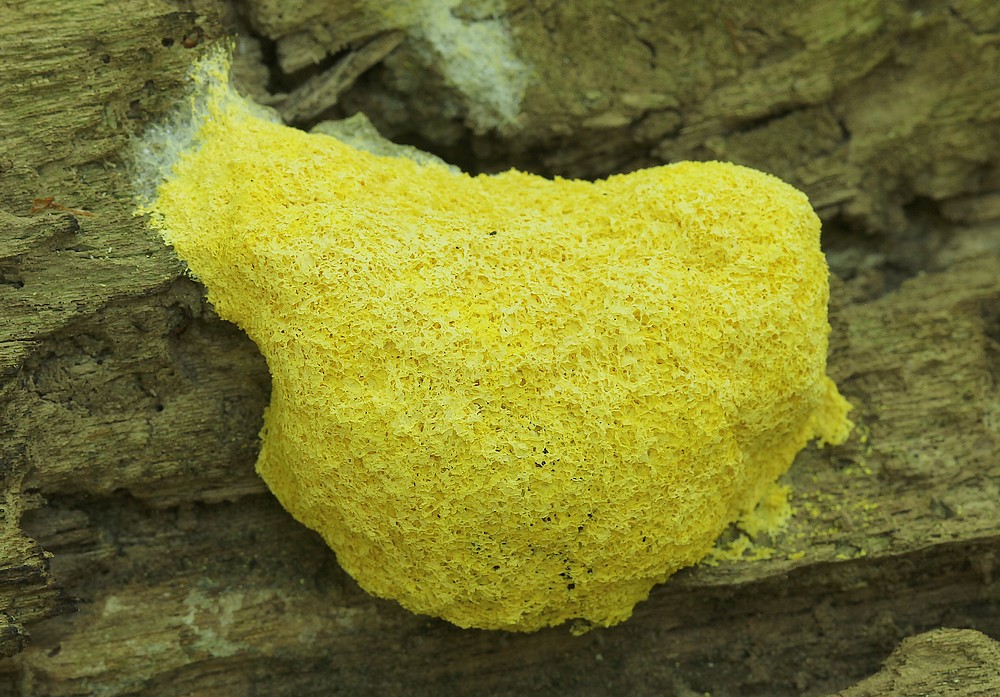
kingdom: Protozoa
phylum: Mycetozoa
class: Myxomycetes
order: Physarales
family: Physaraceae
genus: Fuligo
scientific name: Fuligo septica
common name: gul troldsmør
